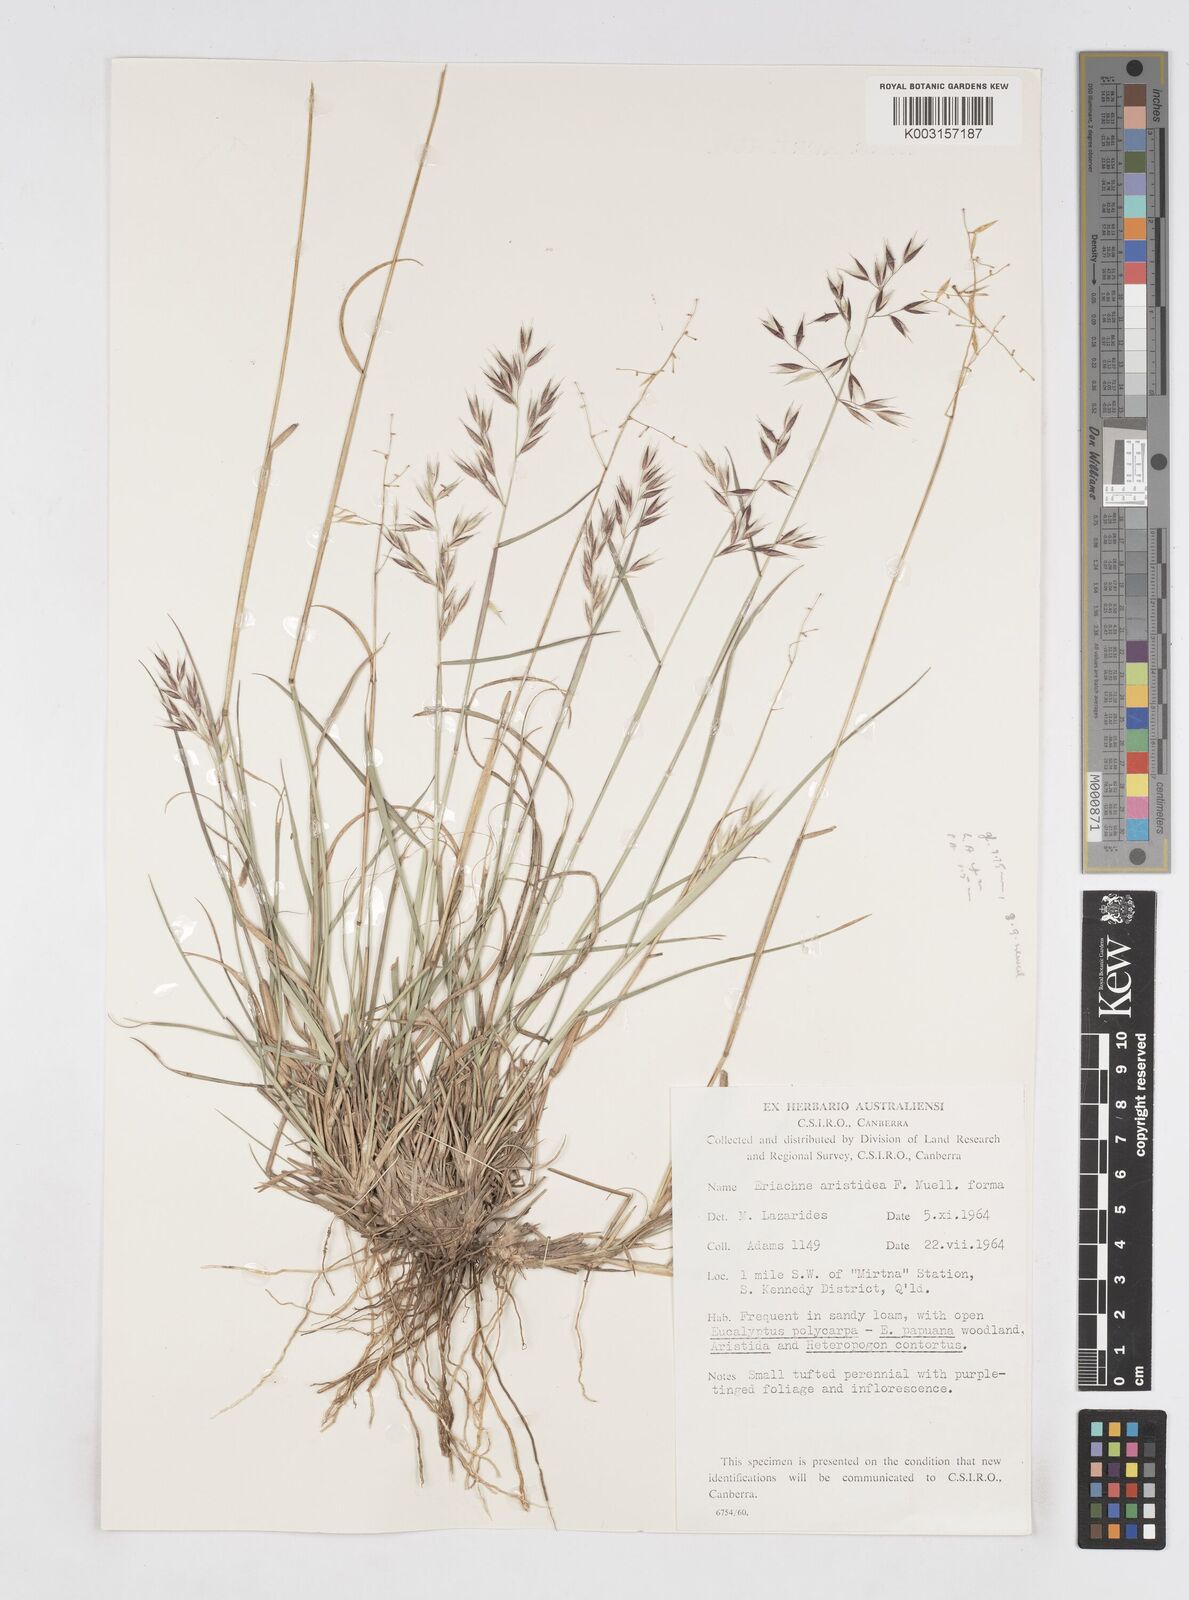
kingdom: Plantae
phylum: Tracheophyta
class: Liliopsida
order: Poales
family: Poaceae
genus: Eriachne
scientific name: Eriachne aristidea
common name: Three-awn wanderrie grass
